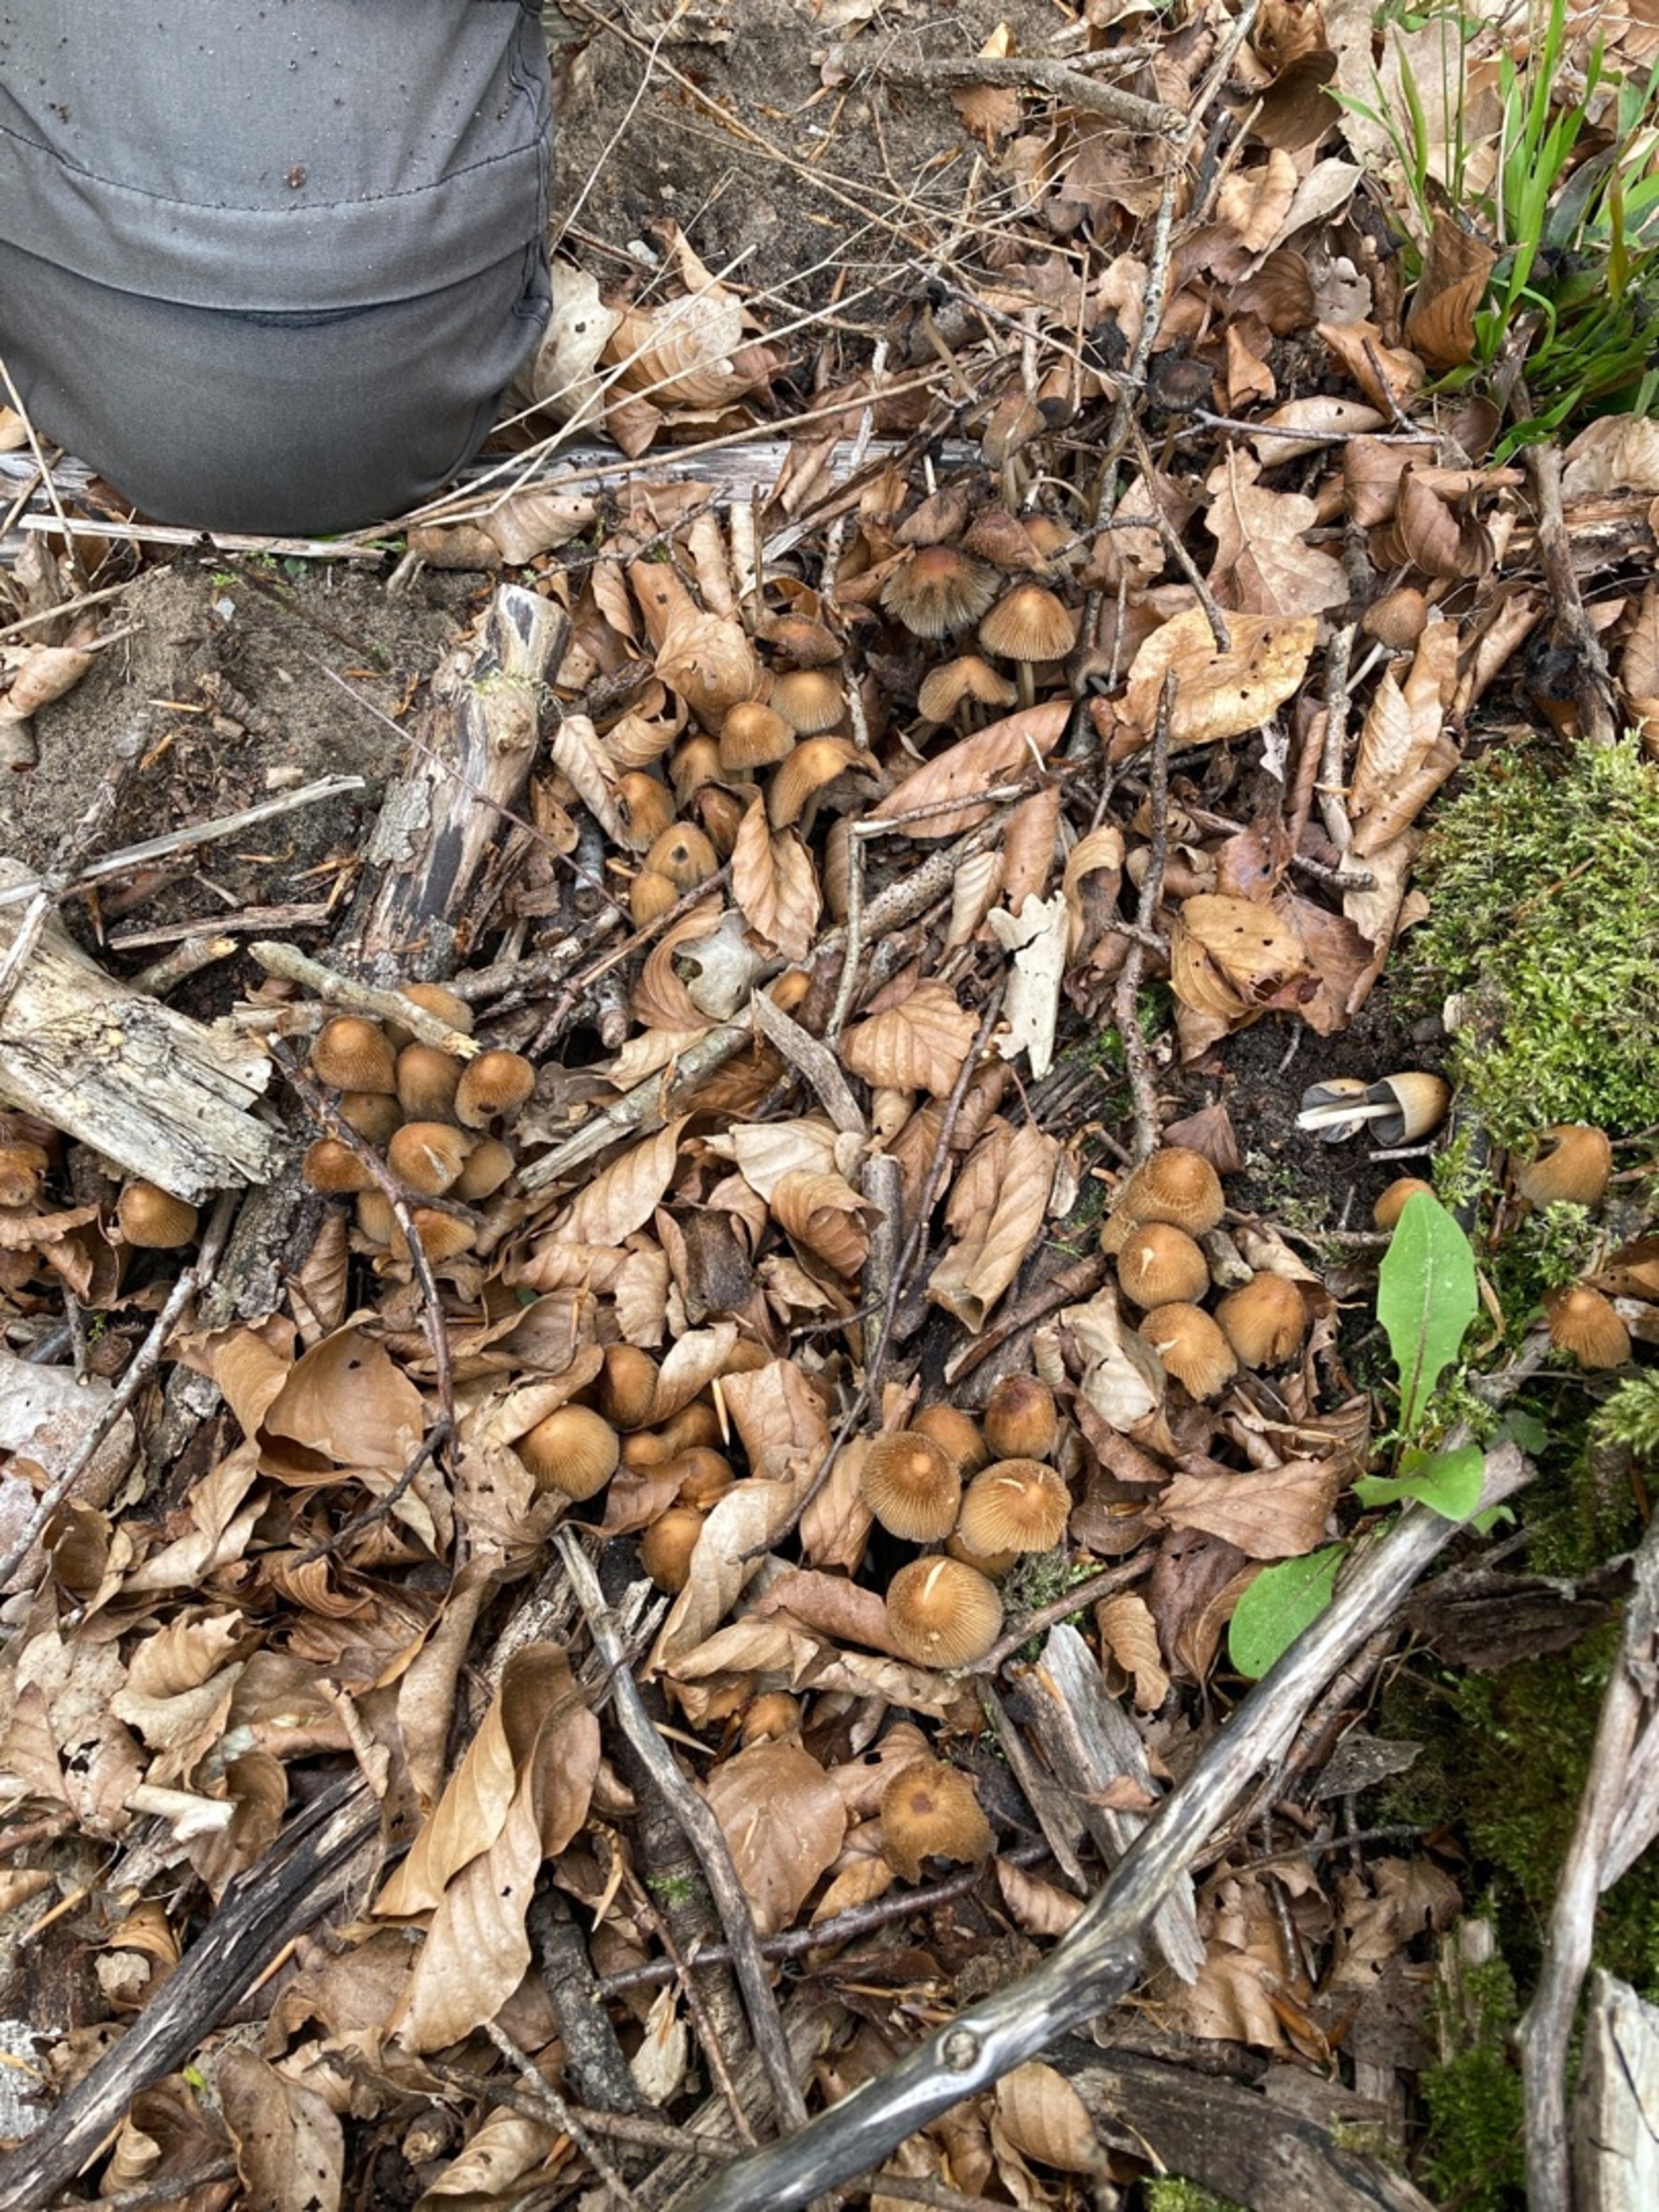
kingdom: Fungi
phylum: Basidiomycota
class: Agaricomycetes
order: Agaricales
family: Psathyrellaceae
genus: Coprinellus
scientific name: Coprinellus micaceus
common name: Glimmer-blækhat
